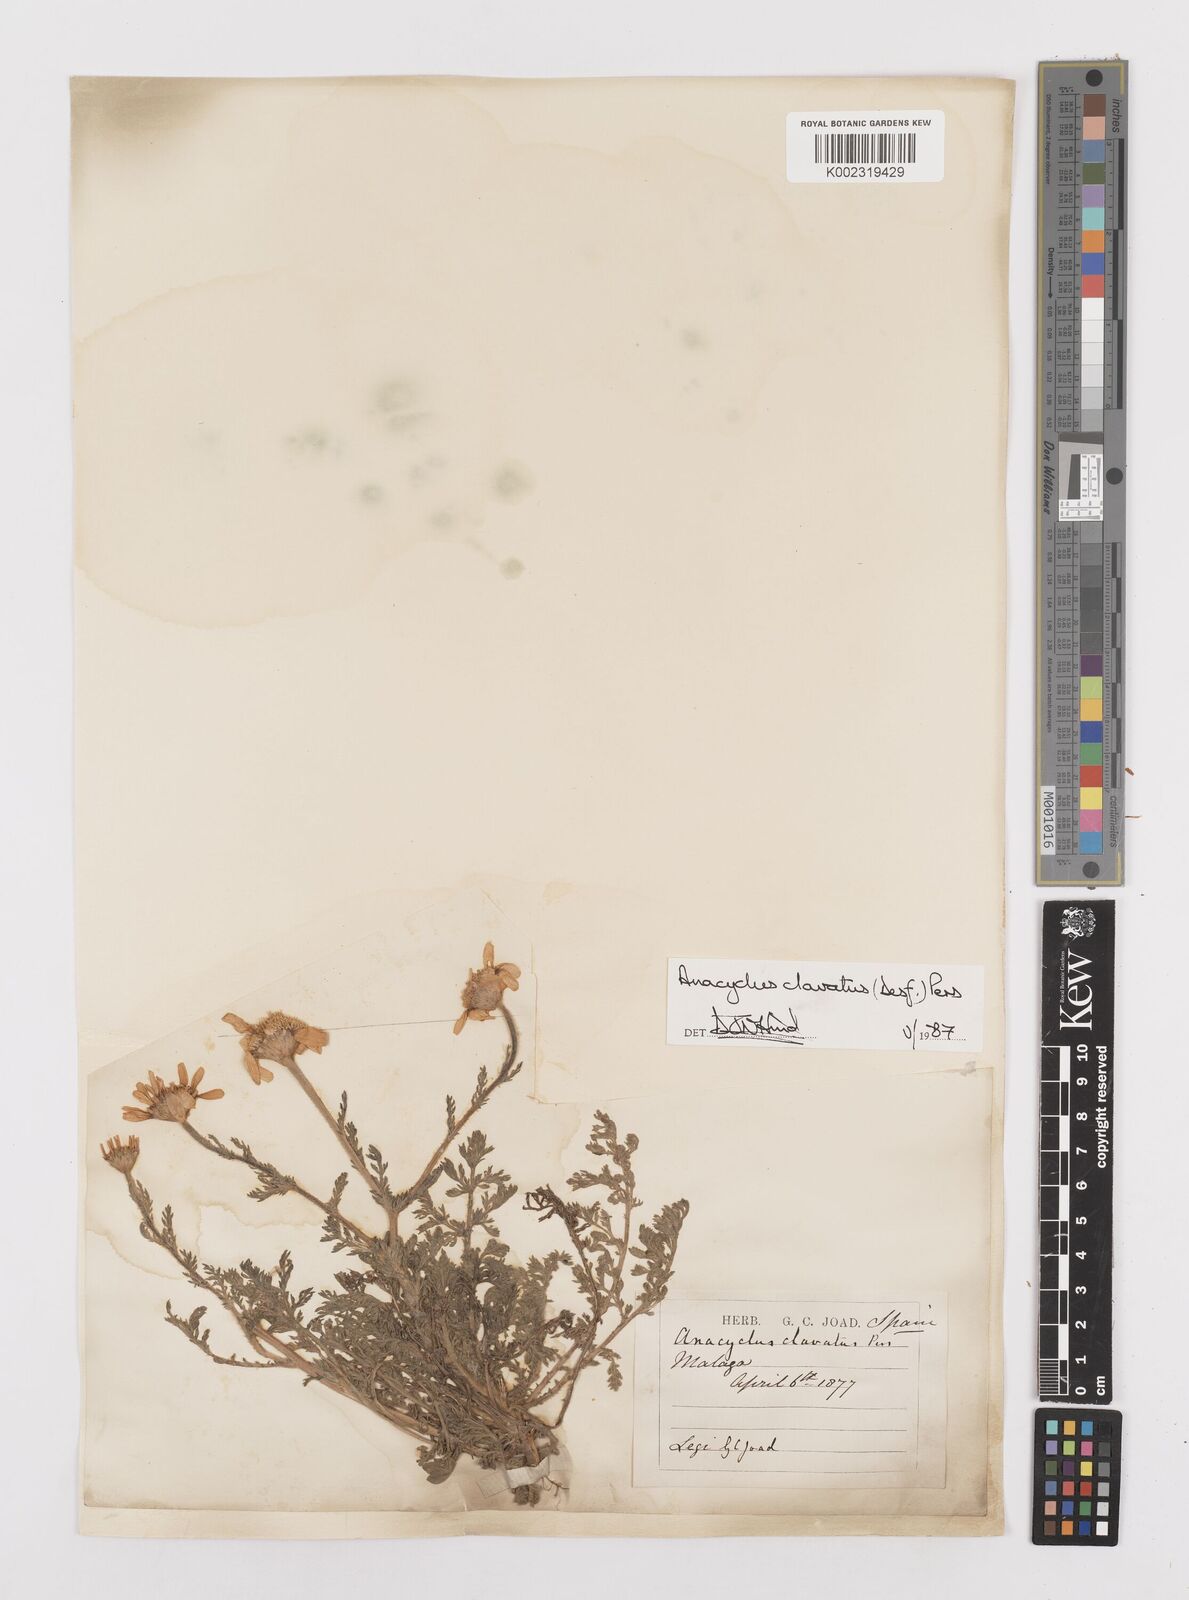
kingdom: Plantae
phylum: Tracheophyta
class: Magnoliopsida
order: Asterales
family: Asteraceae
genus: Anacyclus
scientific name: Anacyclus clavatus
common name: Whitebuttons
